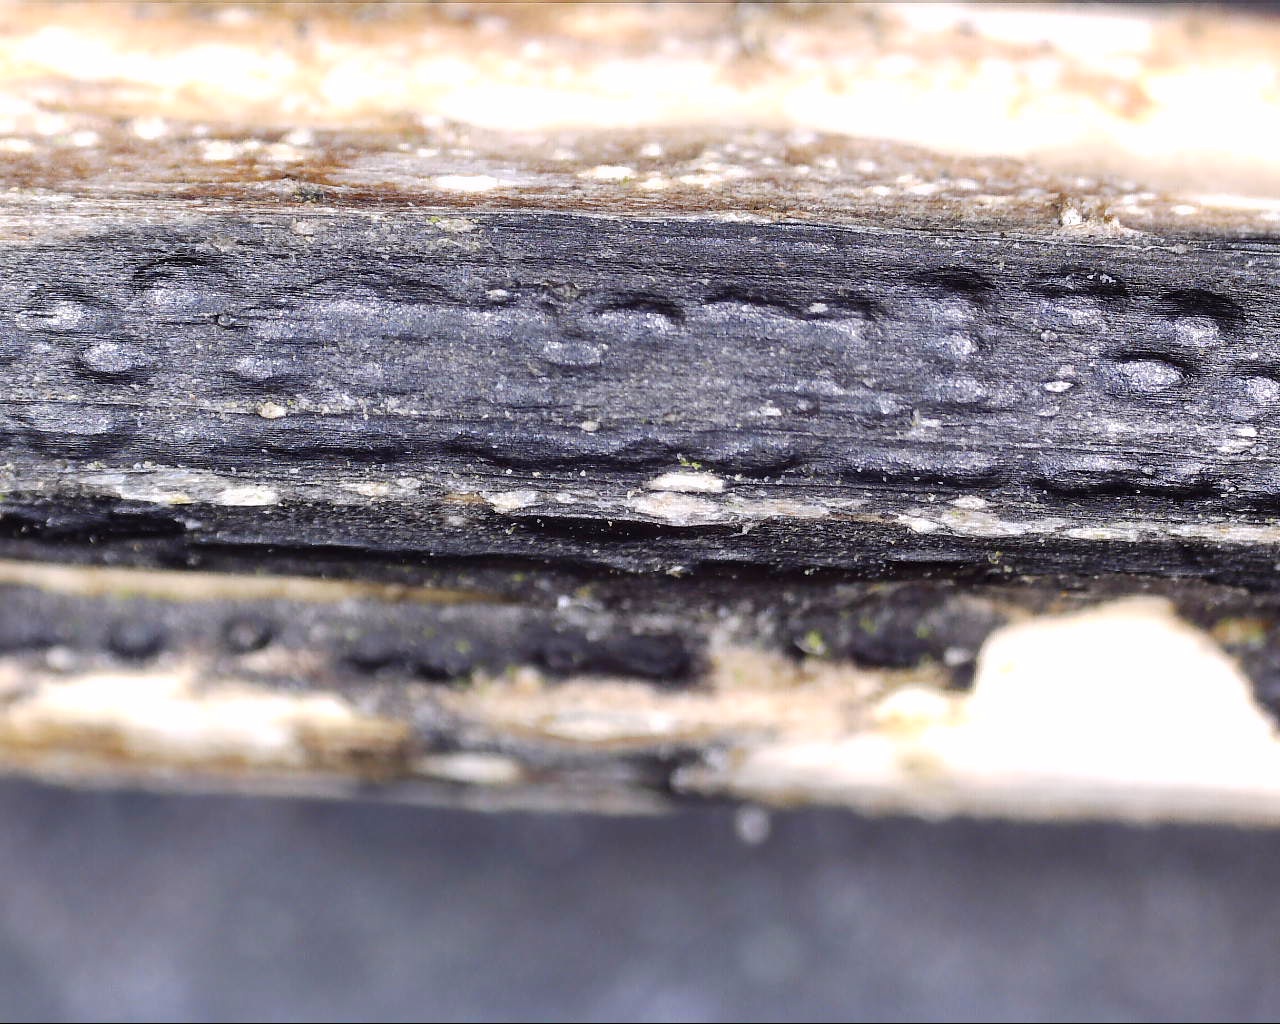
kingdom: Fungi
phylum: Ascomycota
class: Sordariomycetes
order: Diaporthales
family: Diaporthaceae
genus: Diaporthopsis
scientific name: Diaporthopsis urticae
